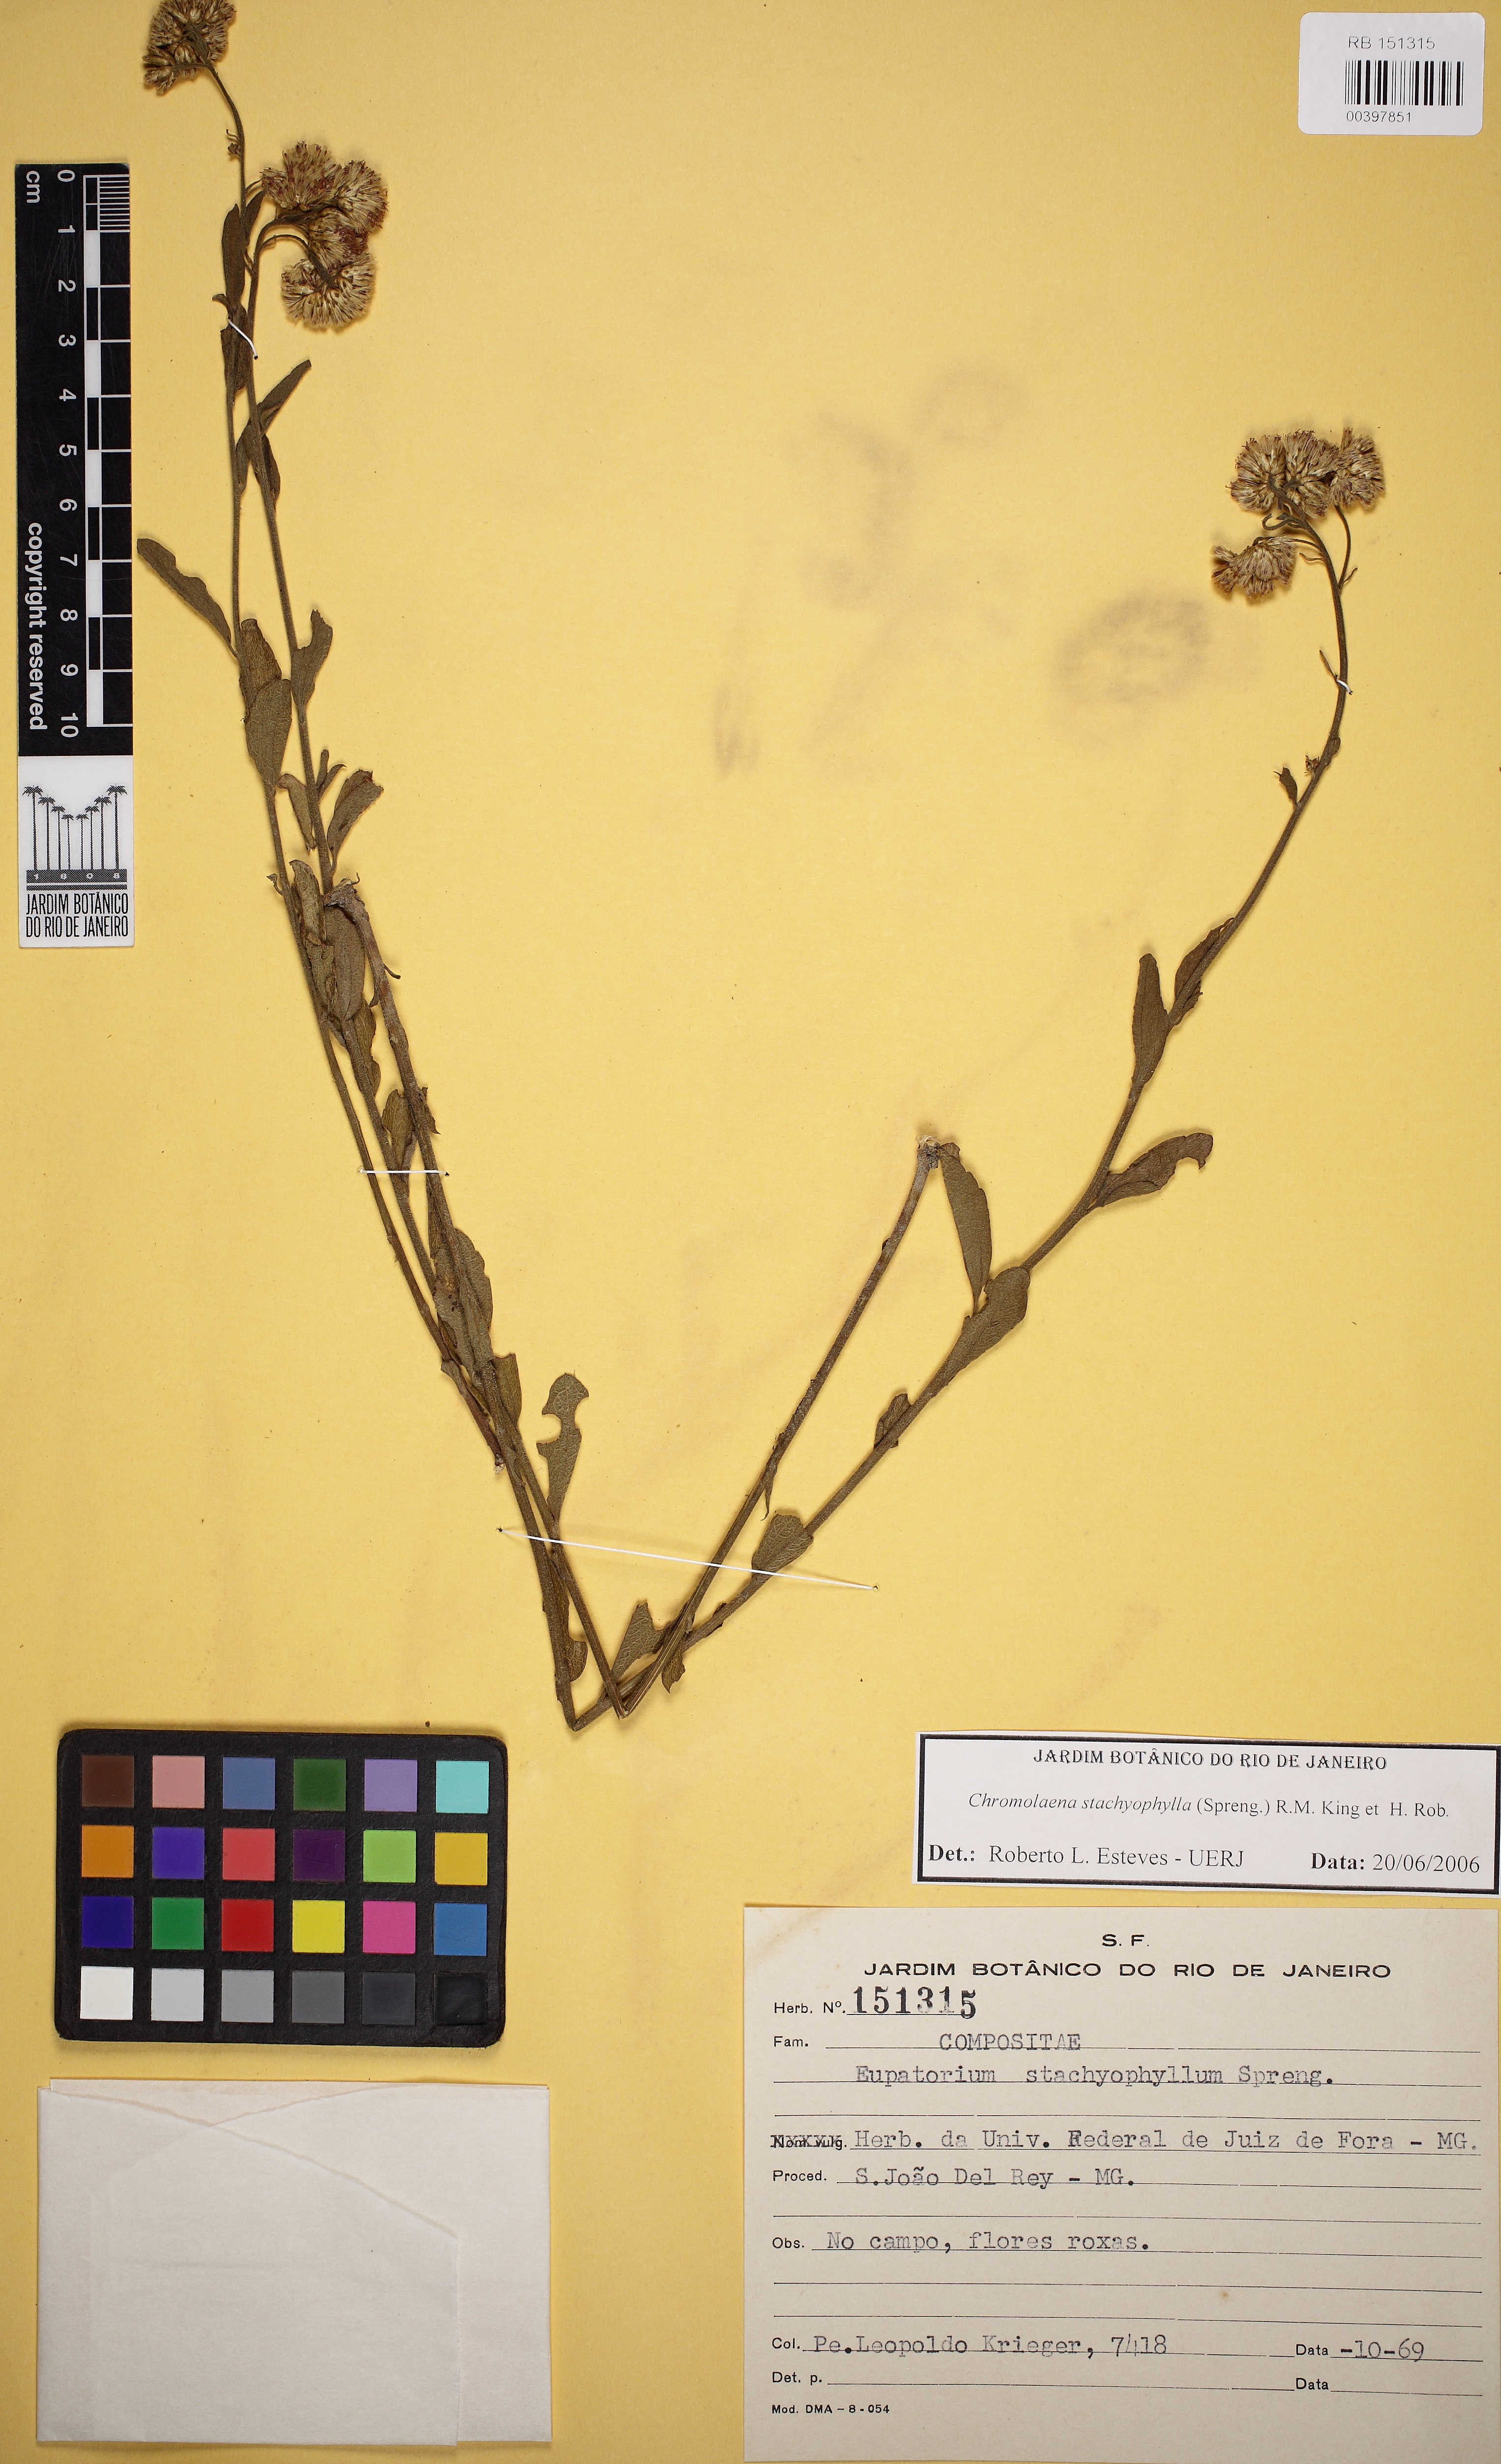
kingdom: Plantae
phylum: Tracheophyta
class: Magnoliopsida
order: Asterales
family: Asteraceae
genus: Chromolaena
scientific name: Chromolaena stachyophylla
